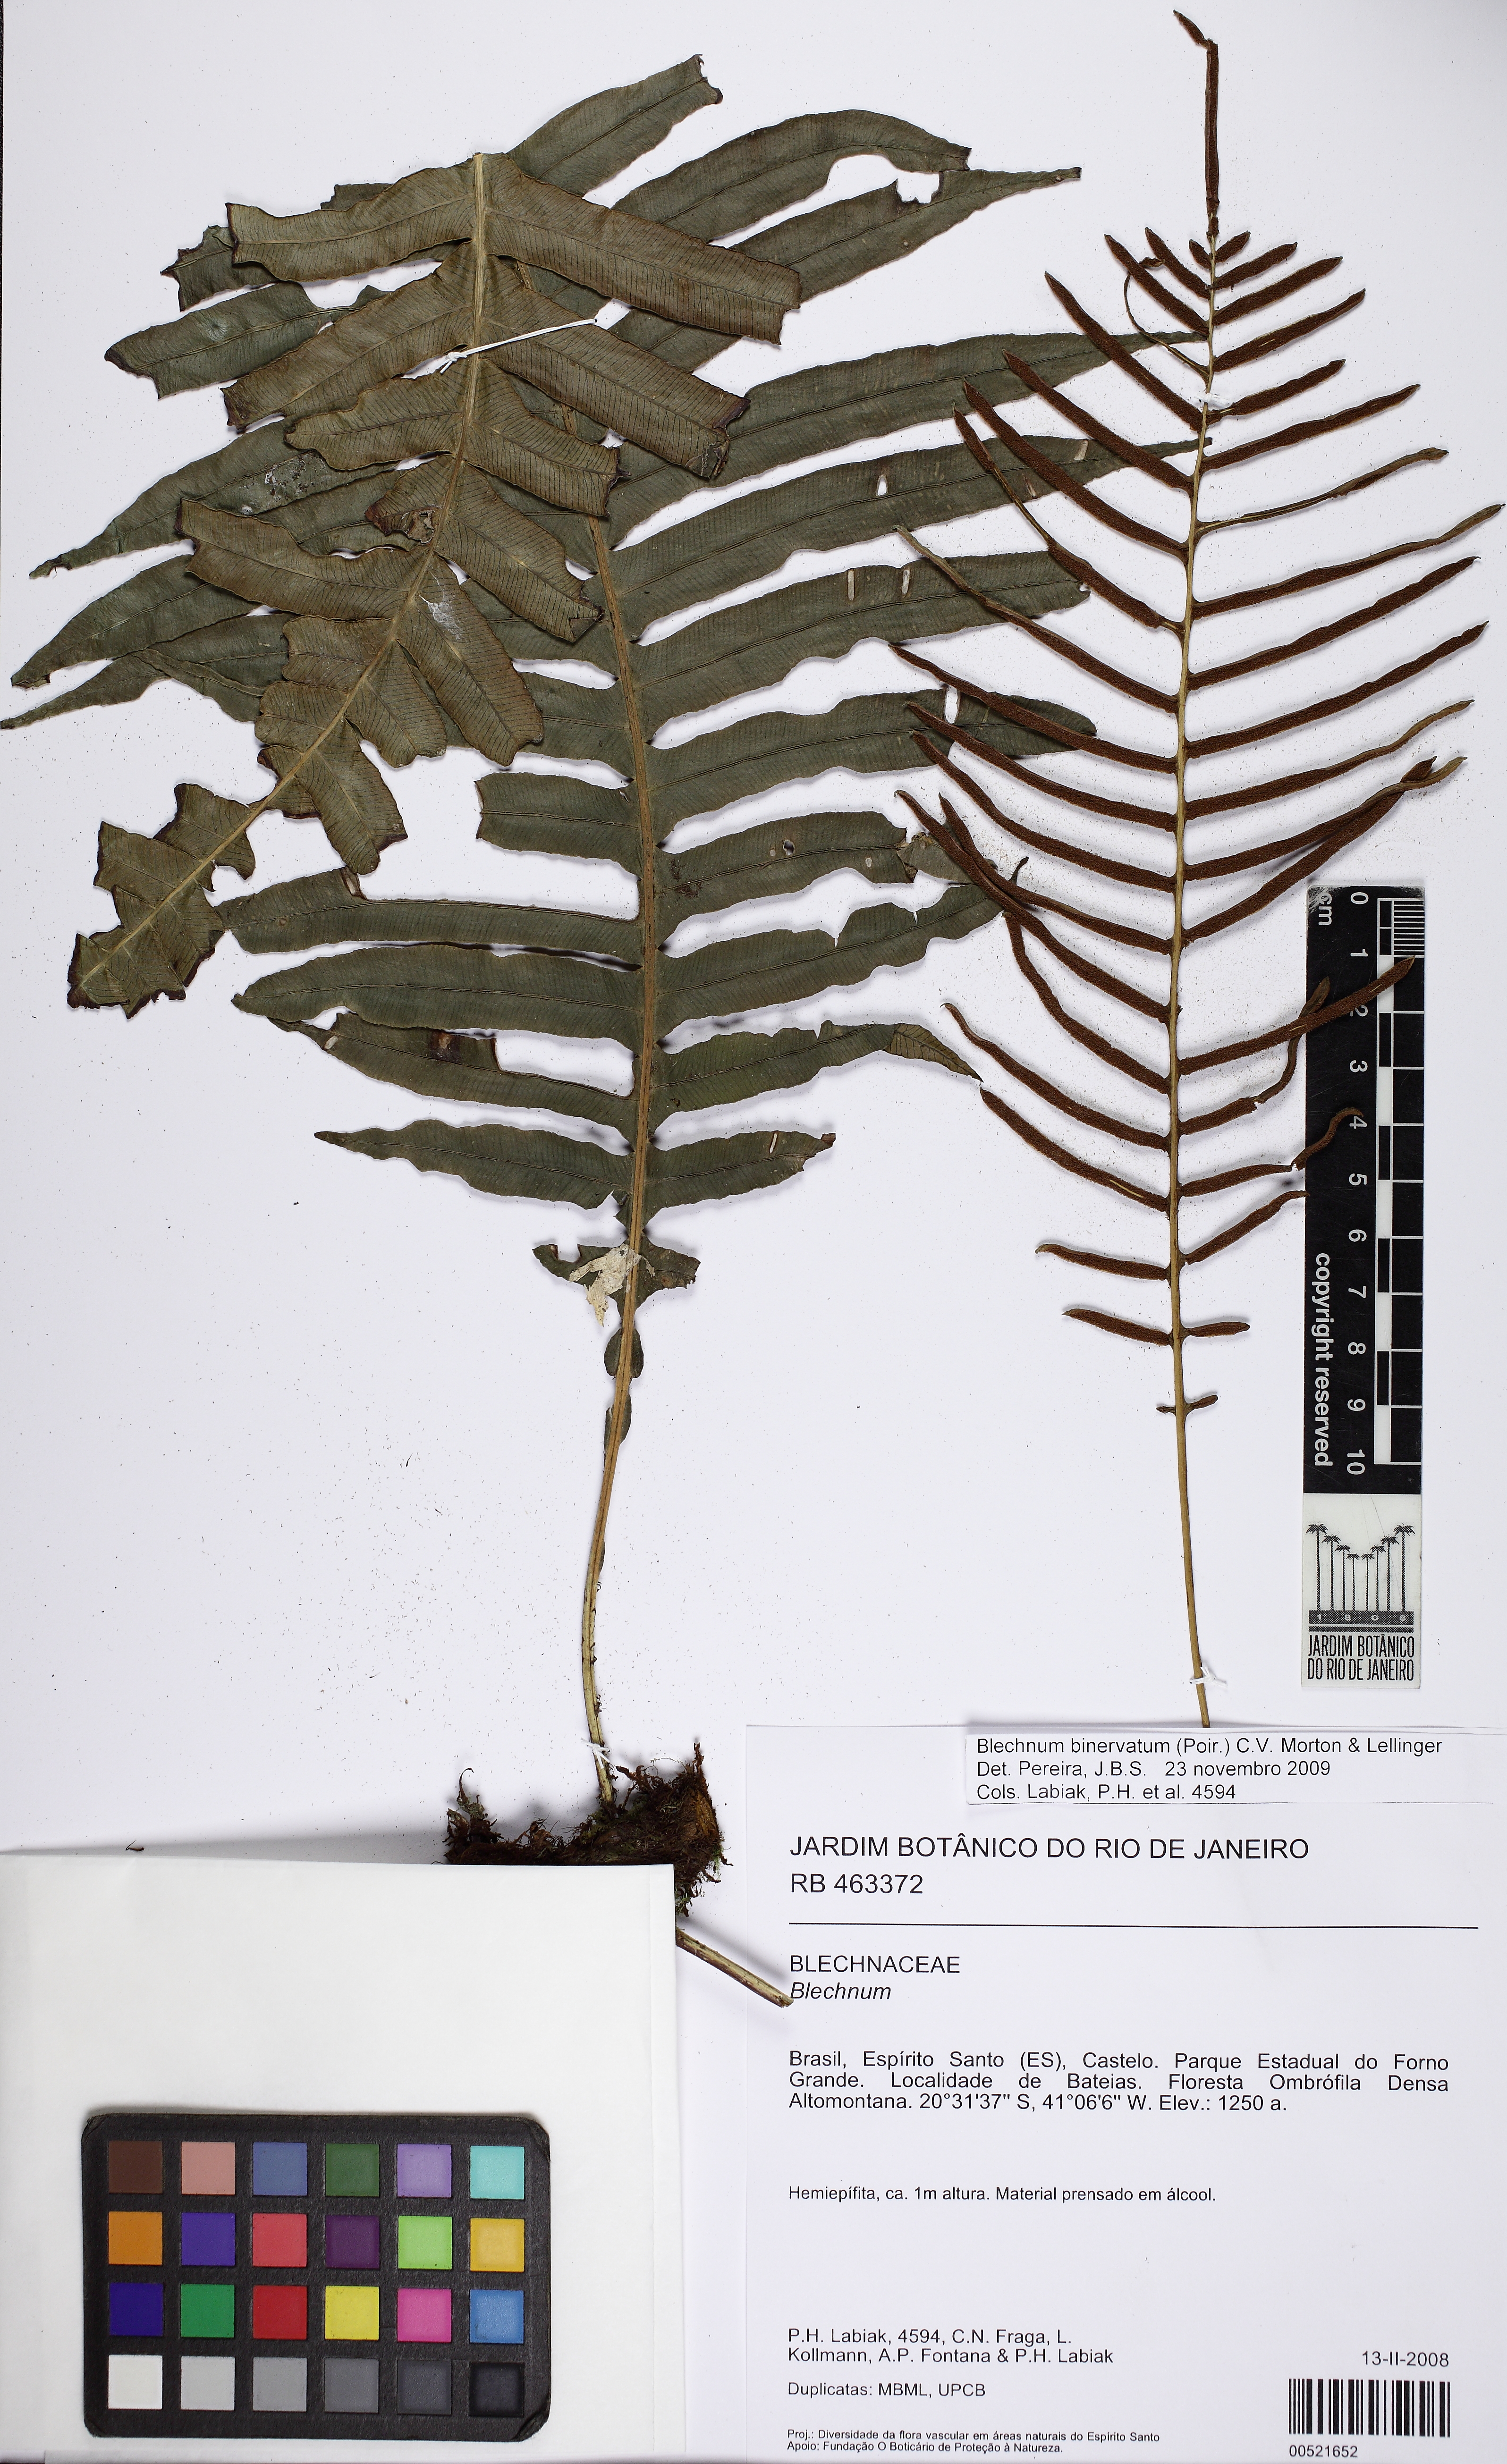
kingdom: Plantae
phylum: Tracheophyta
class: Polypodiopsida
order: Polypodiales
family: Blechnaceae
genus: Lomaridium
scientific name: Lomaridium acutum
